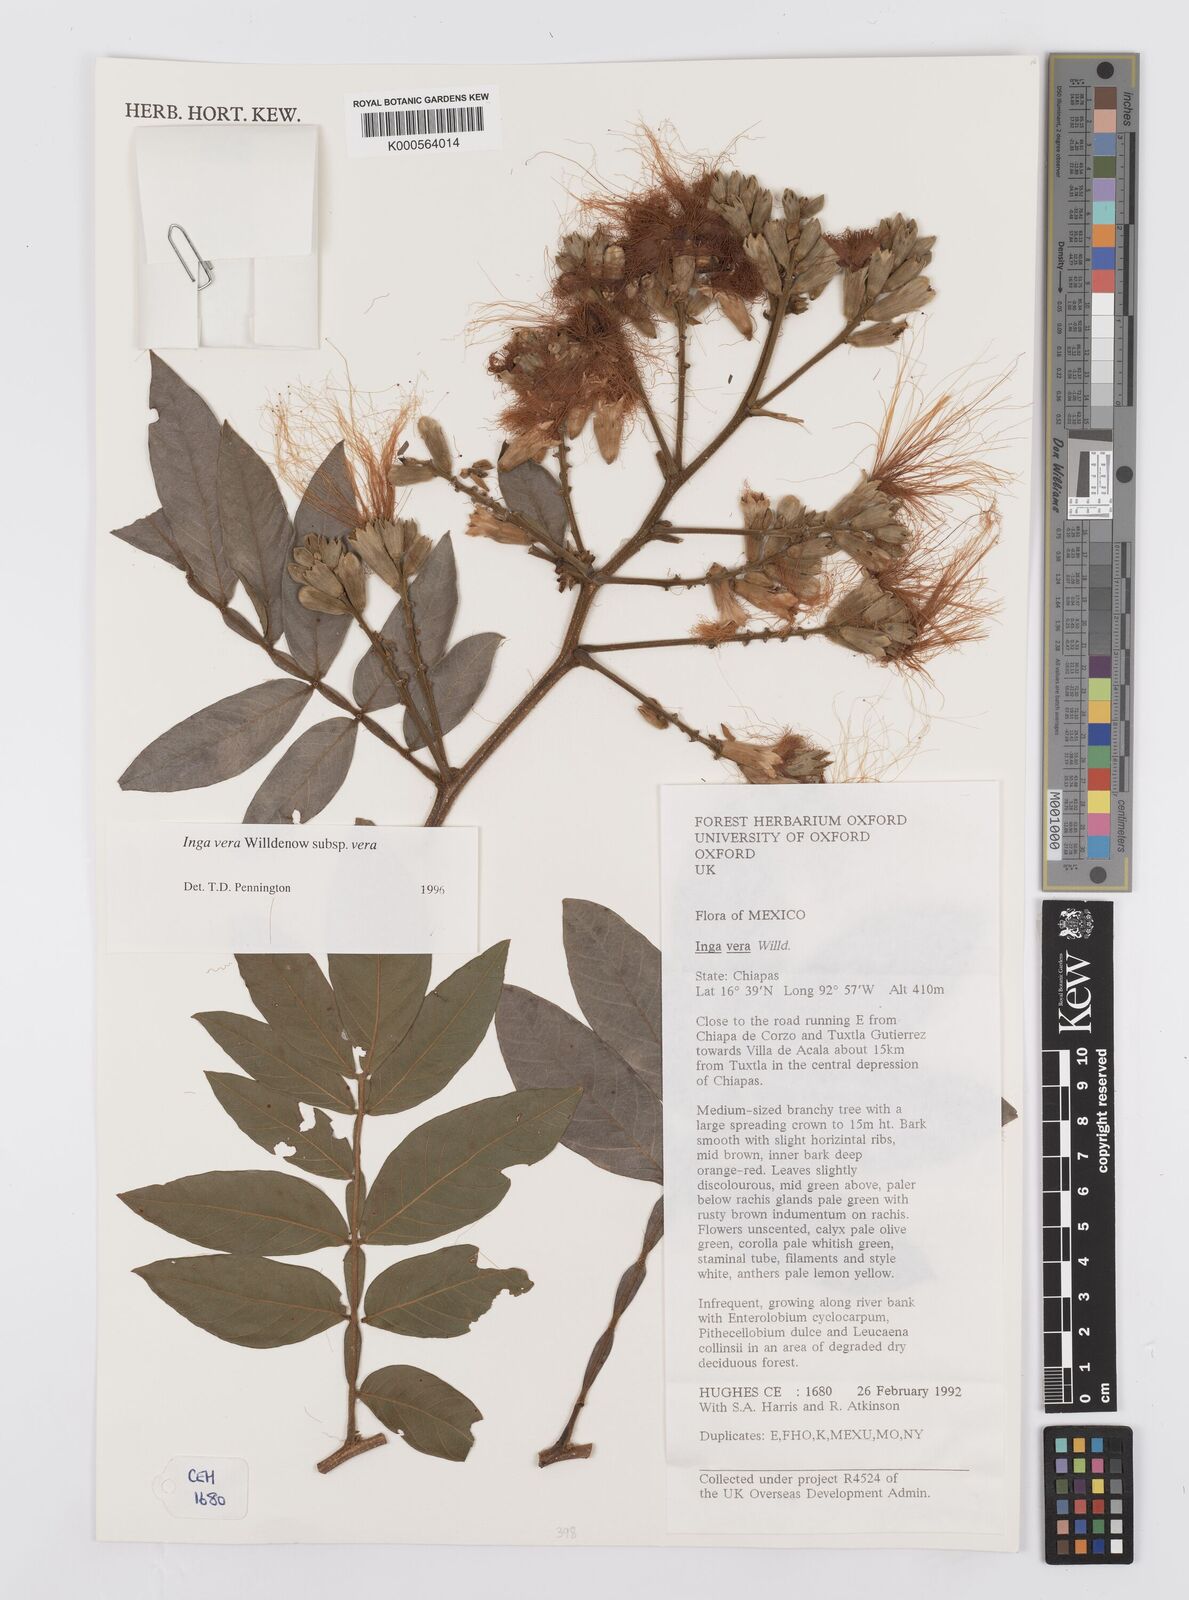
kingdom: Plantae
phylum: Tracheophyta
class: Magnoliopsida
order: Fabales
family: Fabaceae
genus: Inga
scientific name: Inga vera
